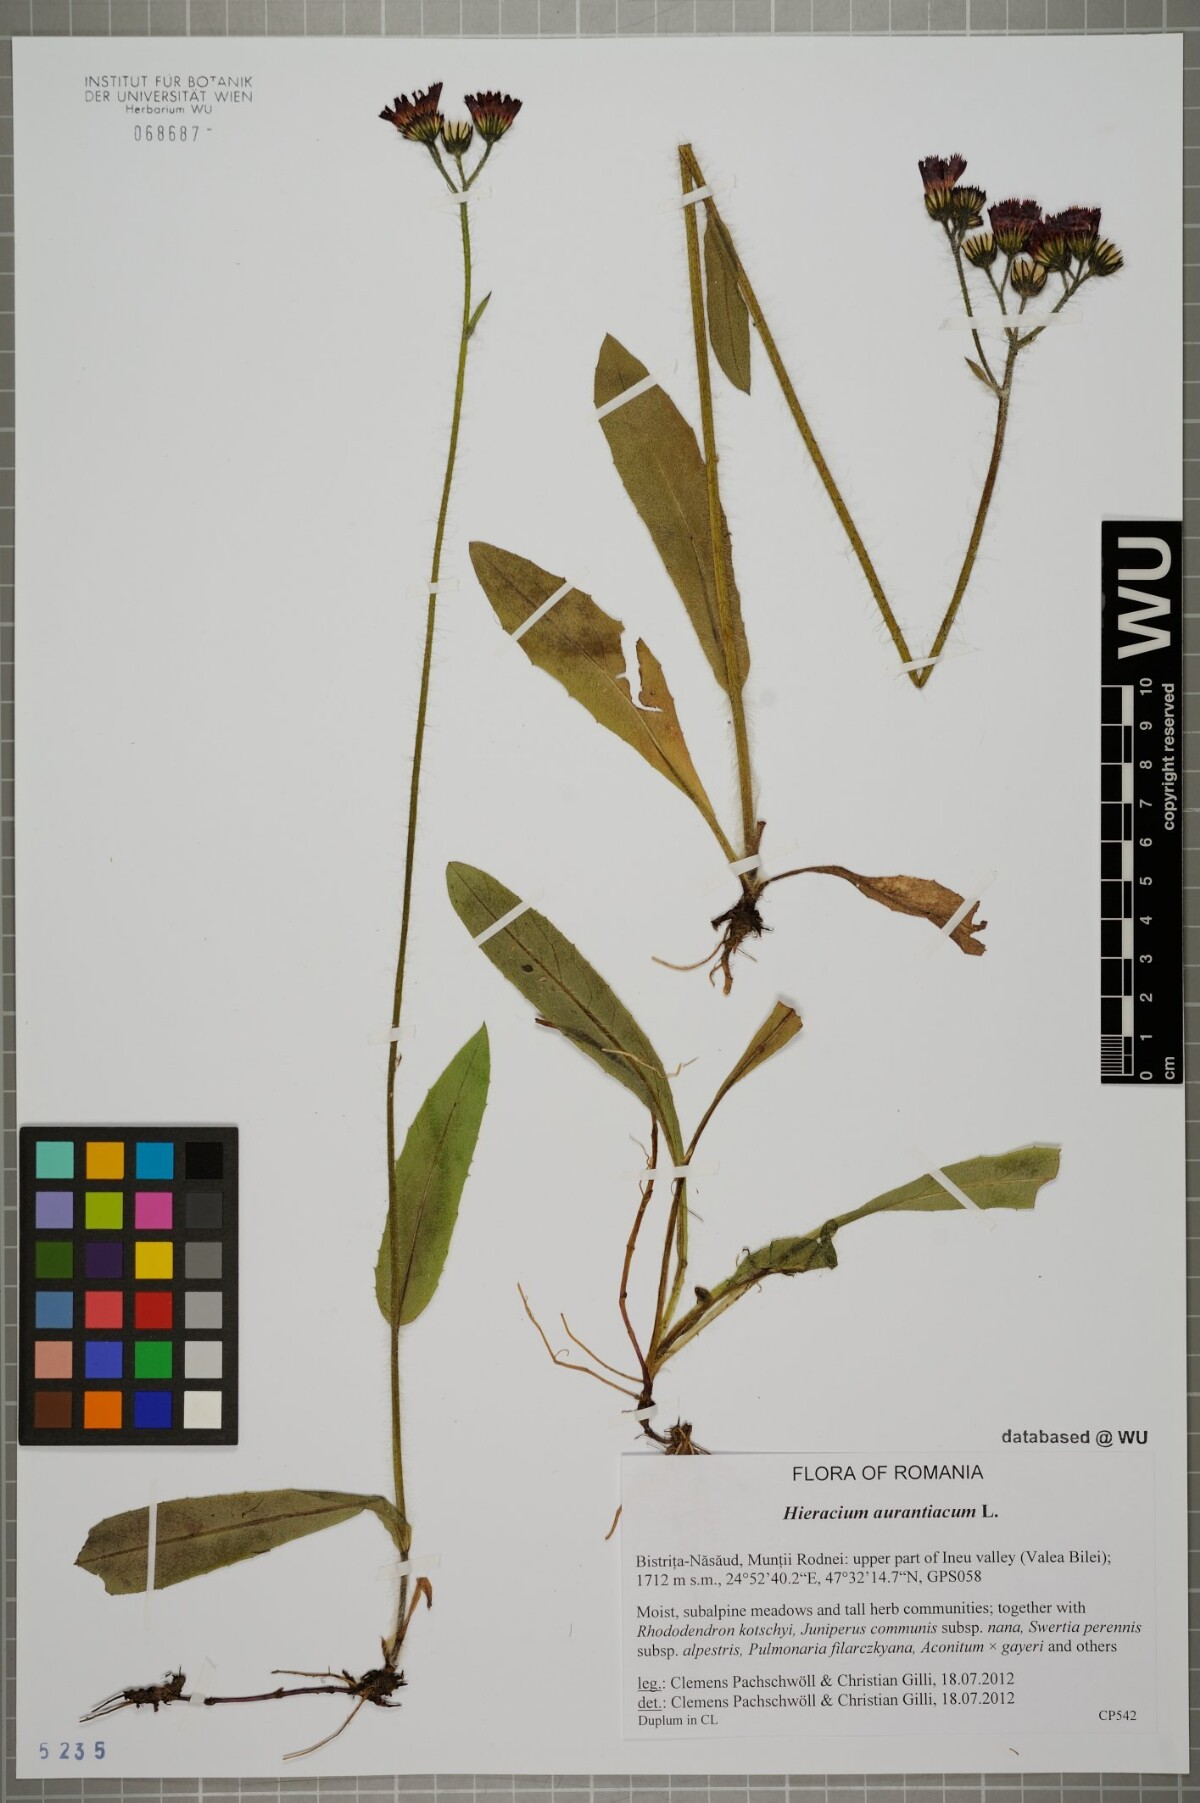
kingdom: Plantae
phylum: Tracheophyta
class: Magnoliopsida
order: Asterales
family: Asteraceae
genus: Pilosella
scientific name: Pilosella aurantiaca
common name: Fox-and-cubs
